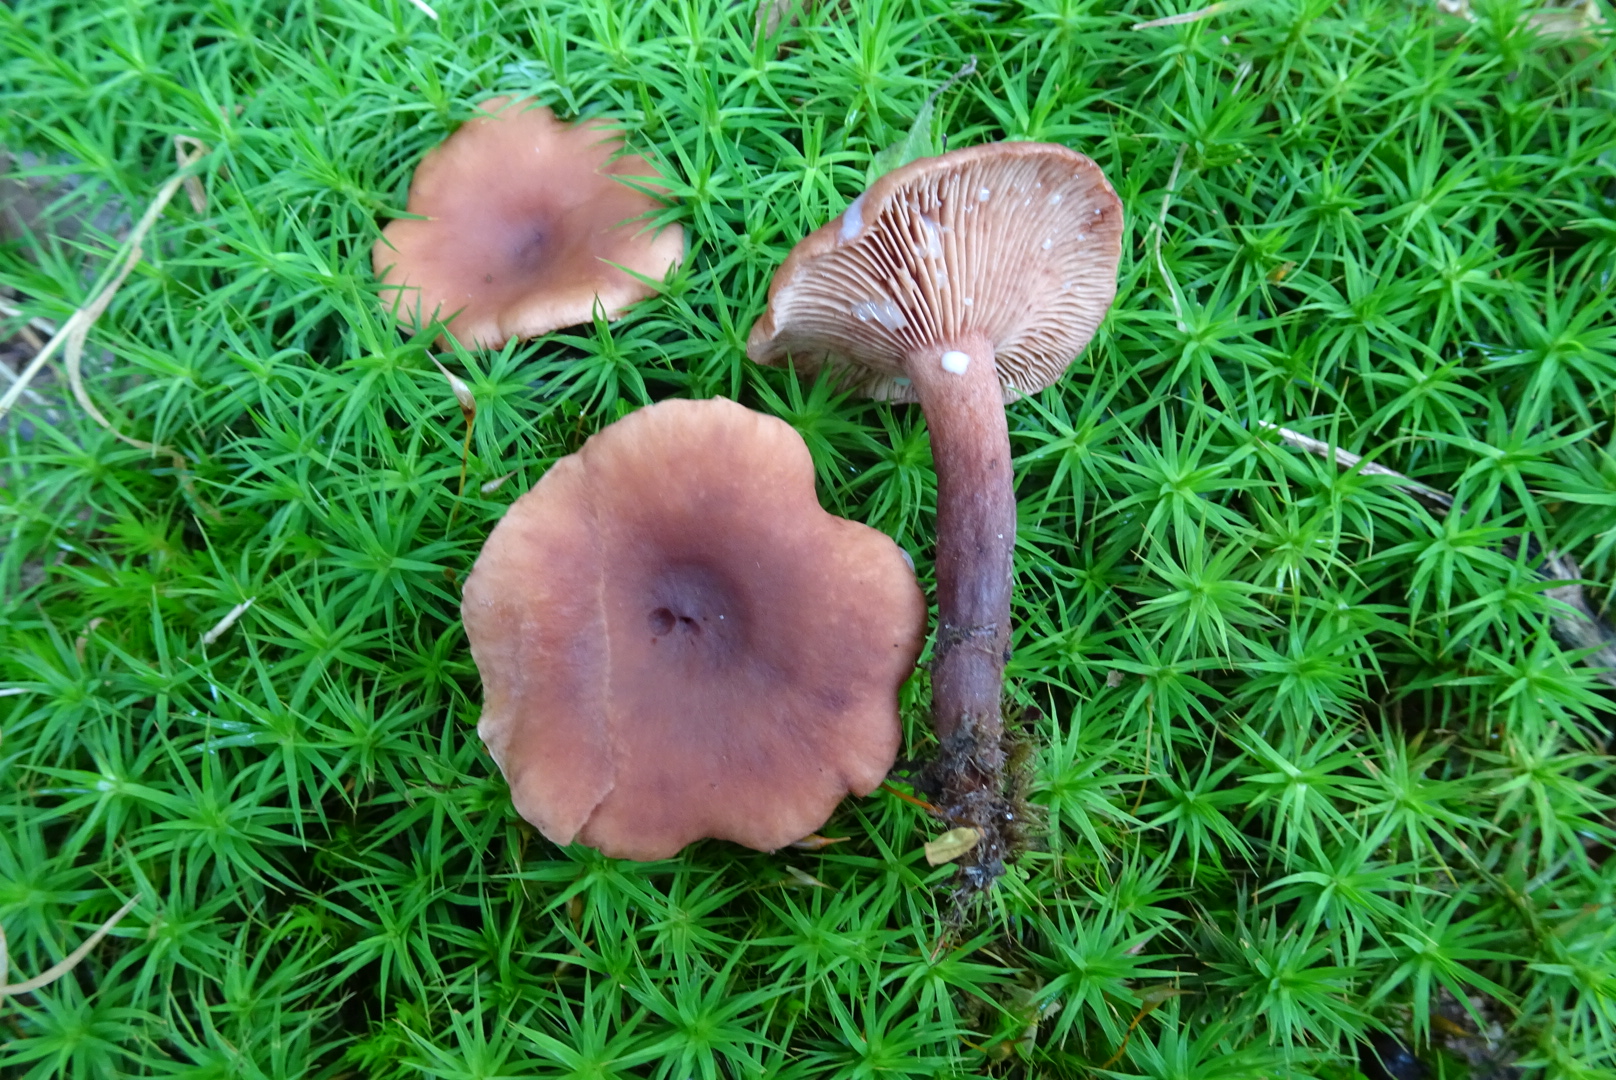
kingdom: Fungi
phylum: Basidiomycota
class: Agaricomycetes
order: Russulales
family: Russulaceae
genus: Lactarius
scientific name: Lactarius camphoratus
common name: kamfer-mælkehat
